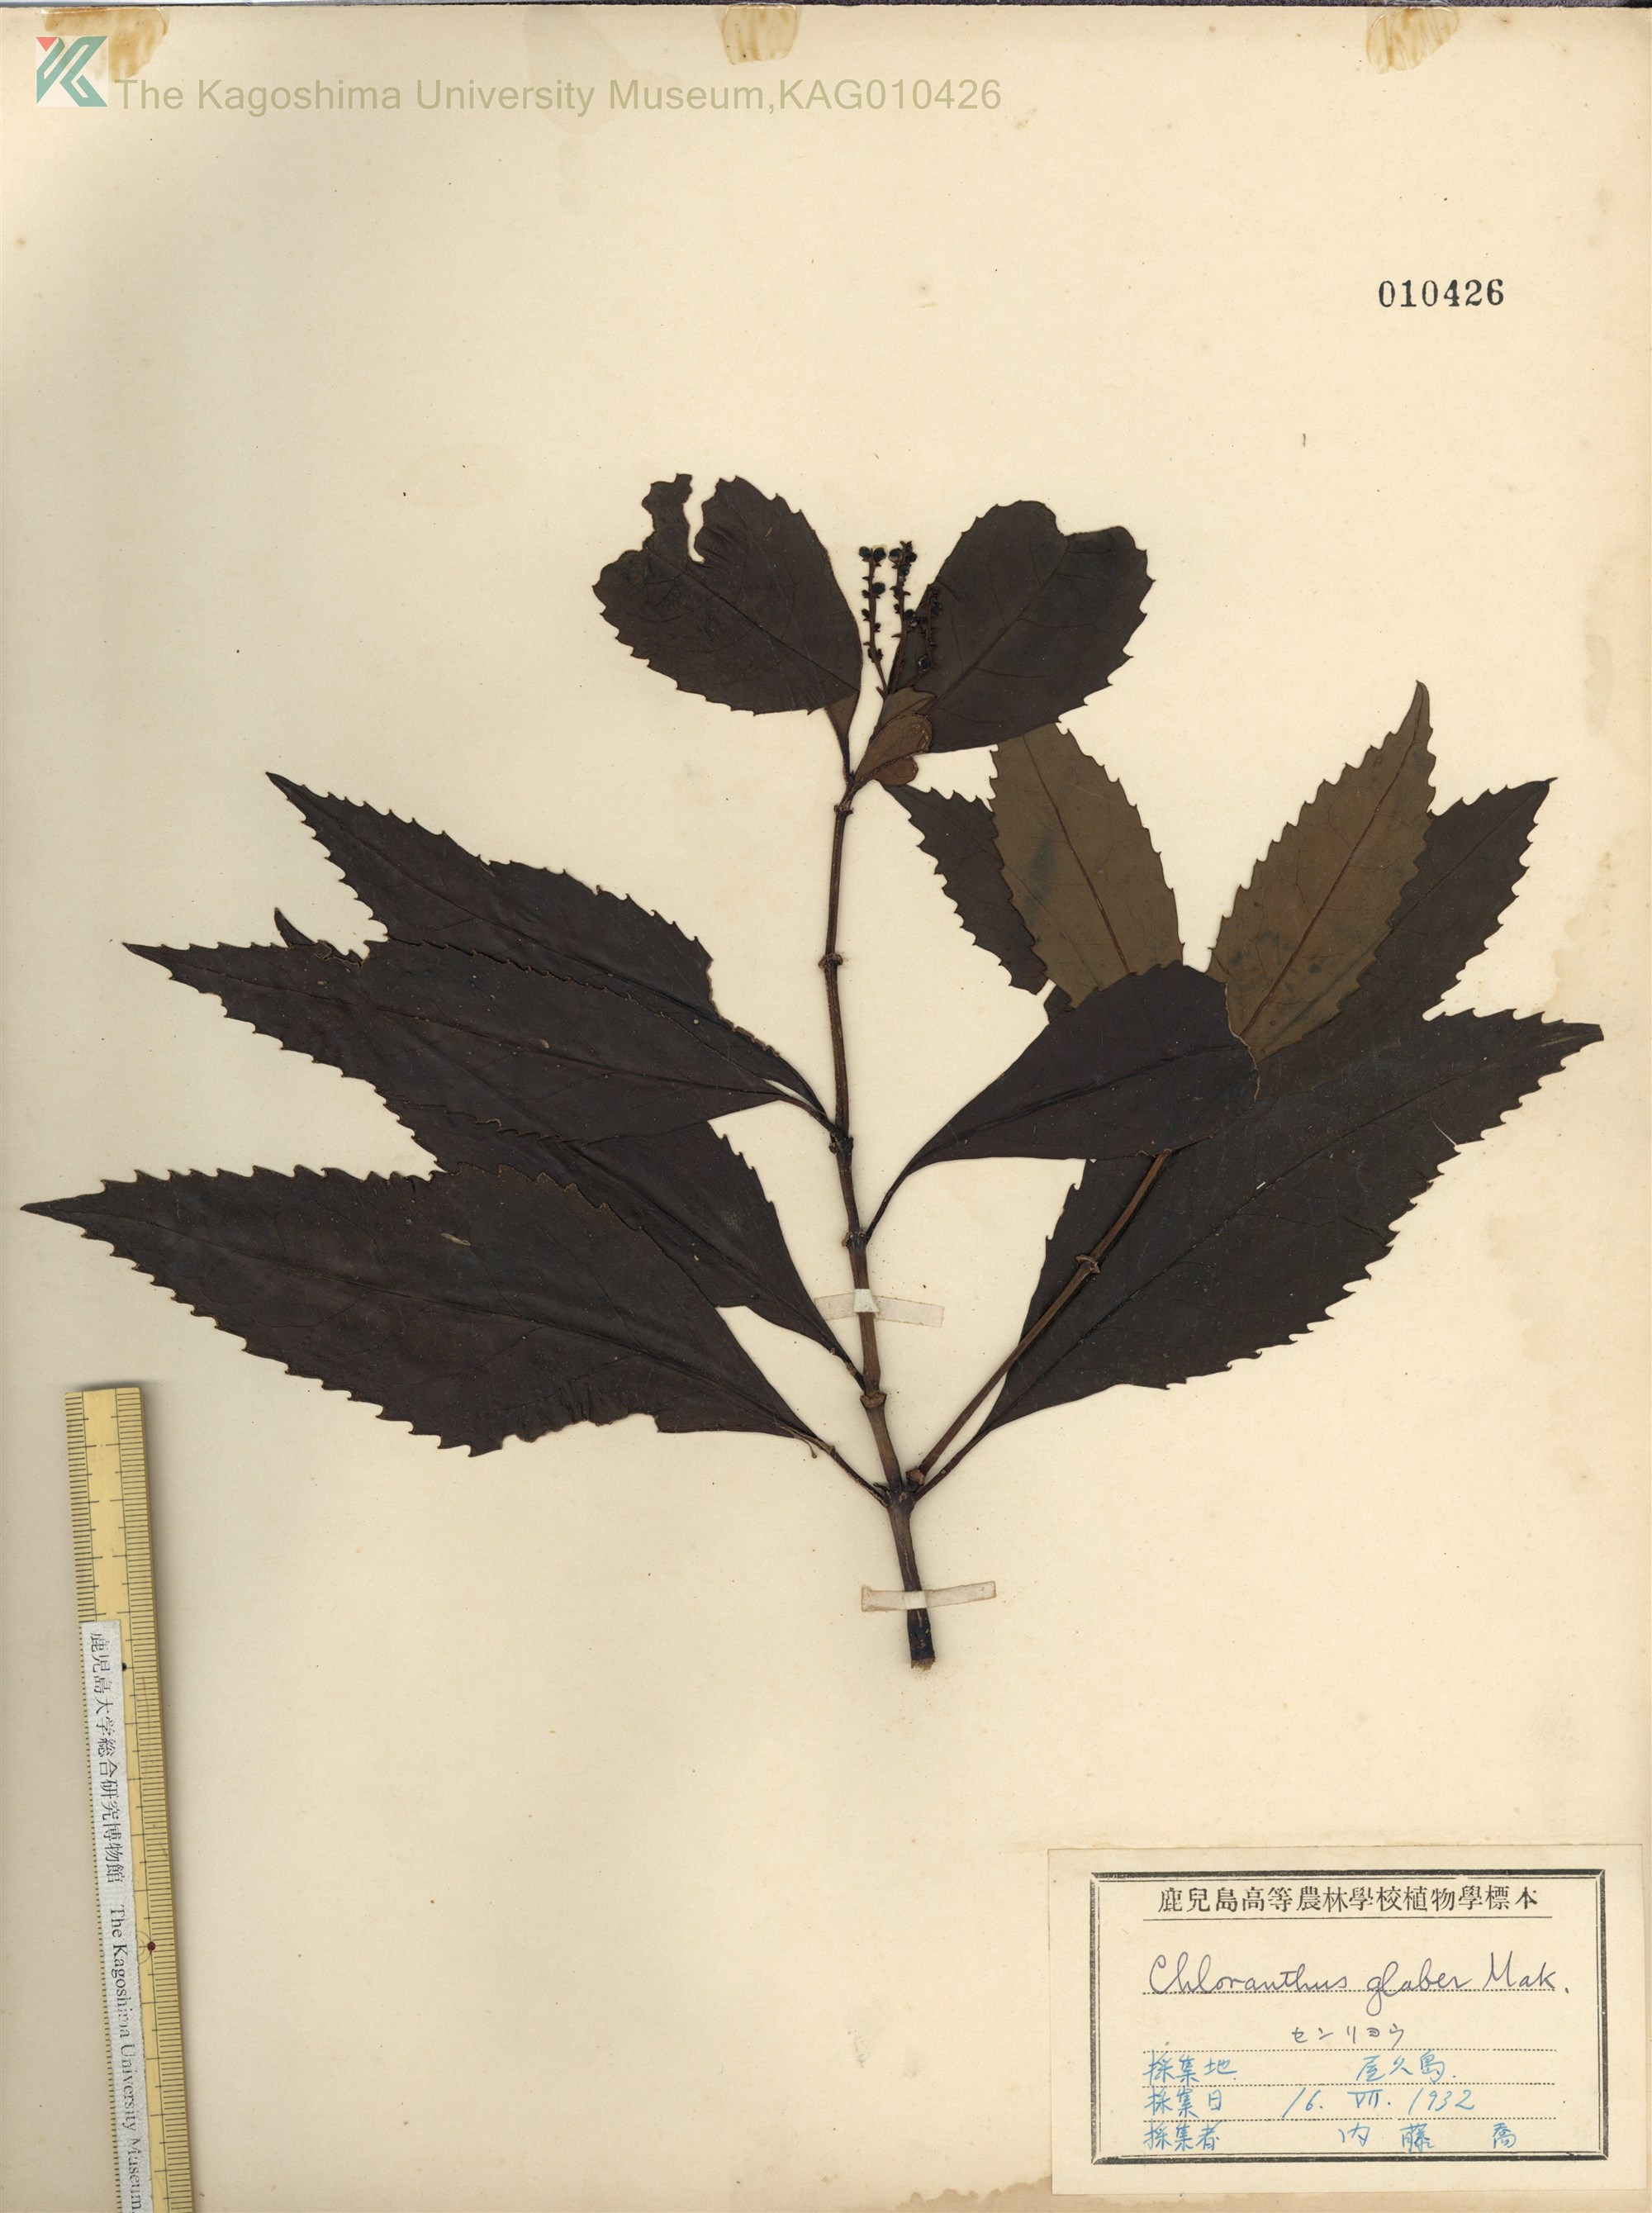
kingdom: Plantae
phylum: Tracheophyta
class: Magnoliopsida
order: Chloranthales
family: Chloranthaceae
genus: Sarcandra
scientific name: Sarcandra glabra
